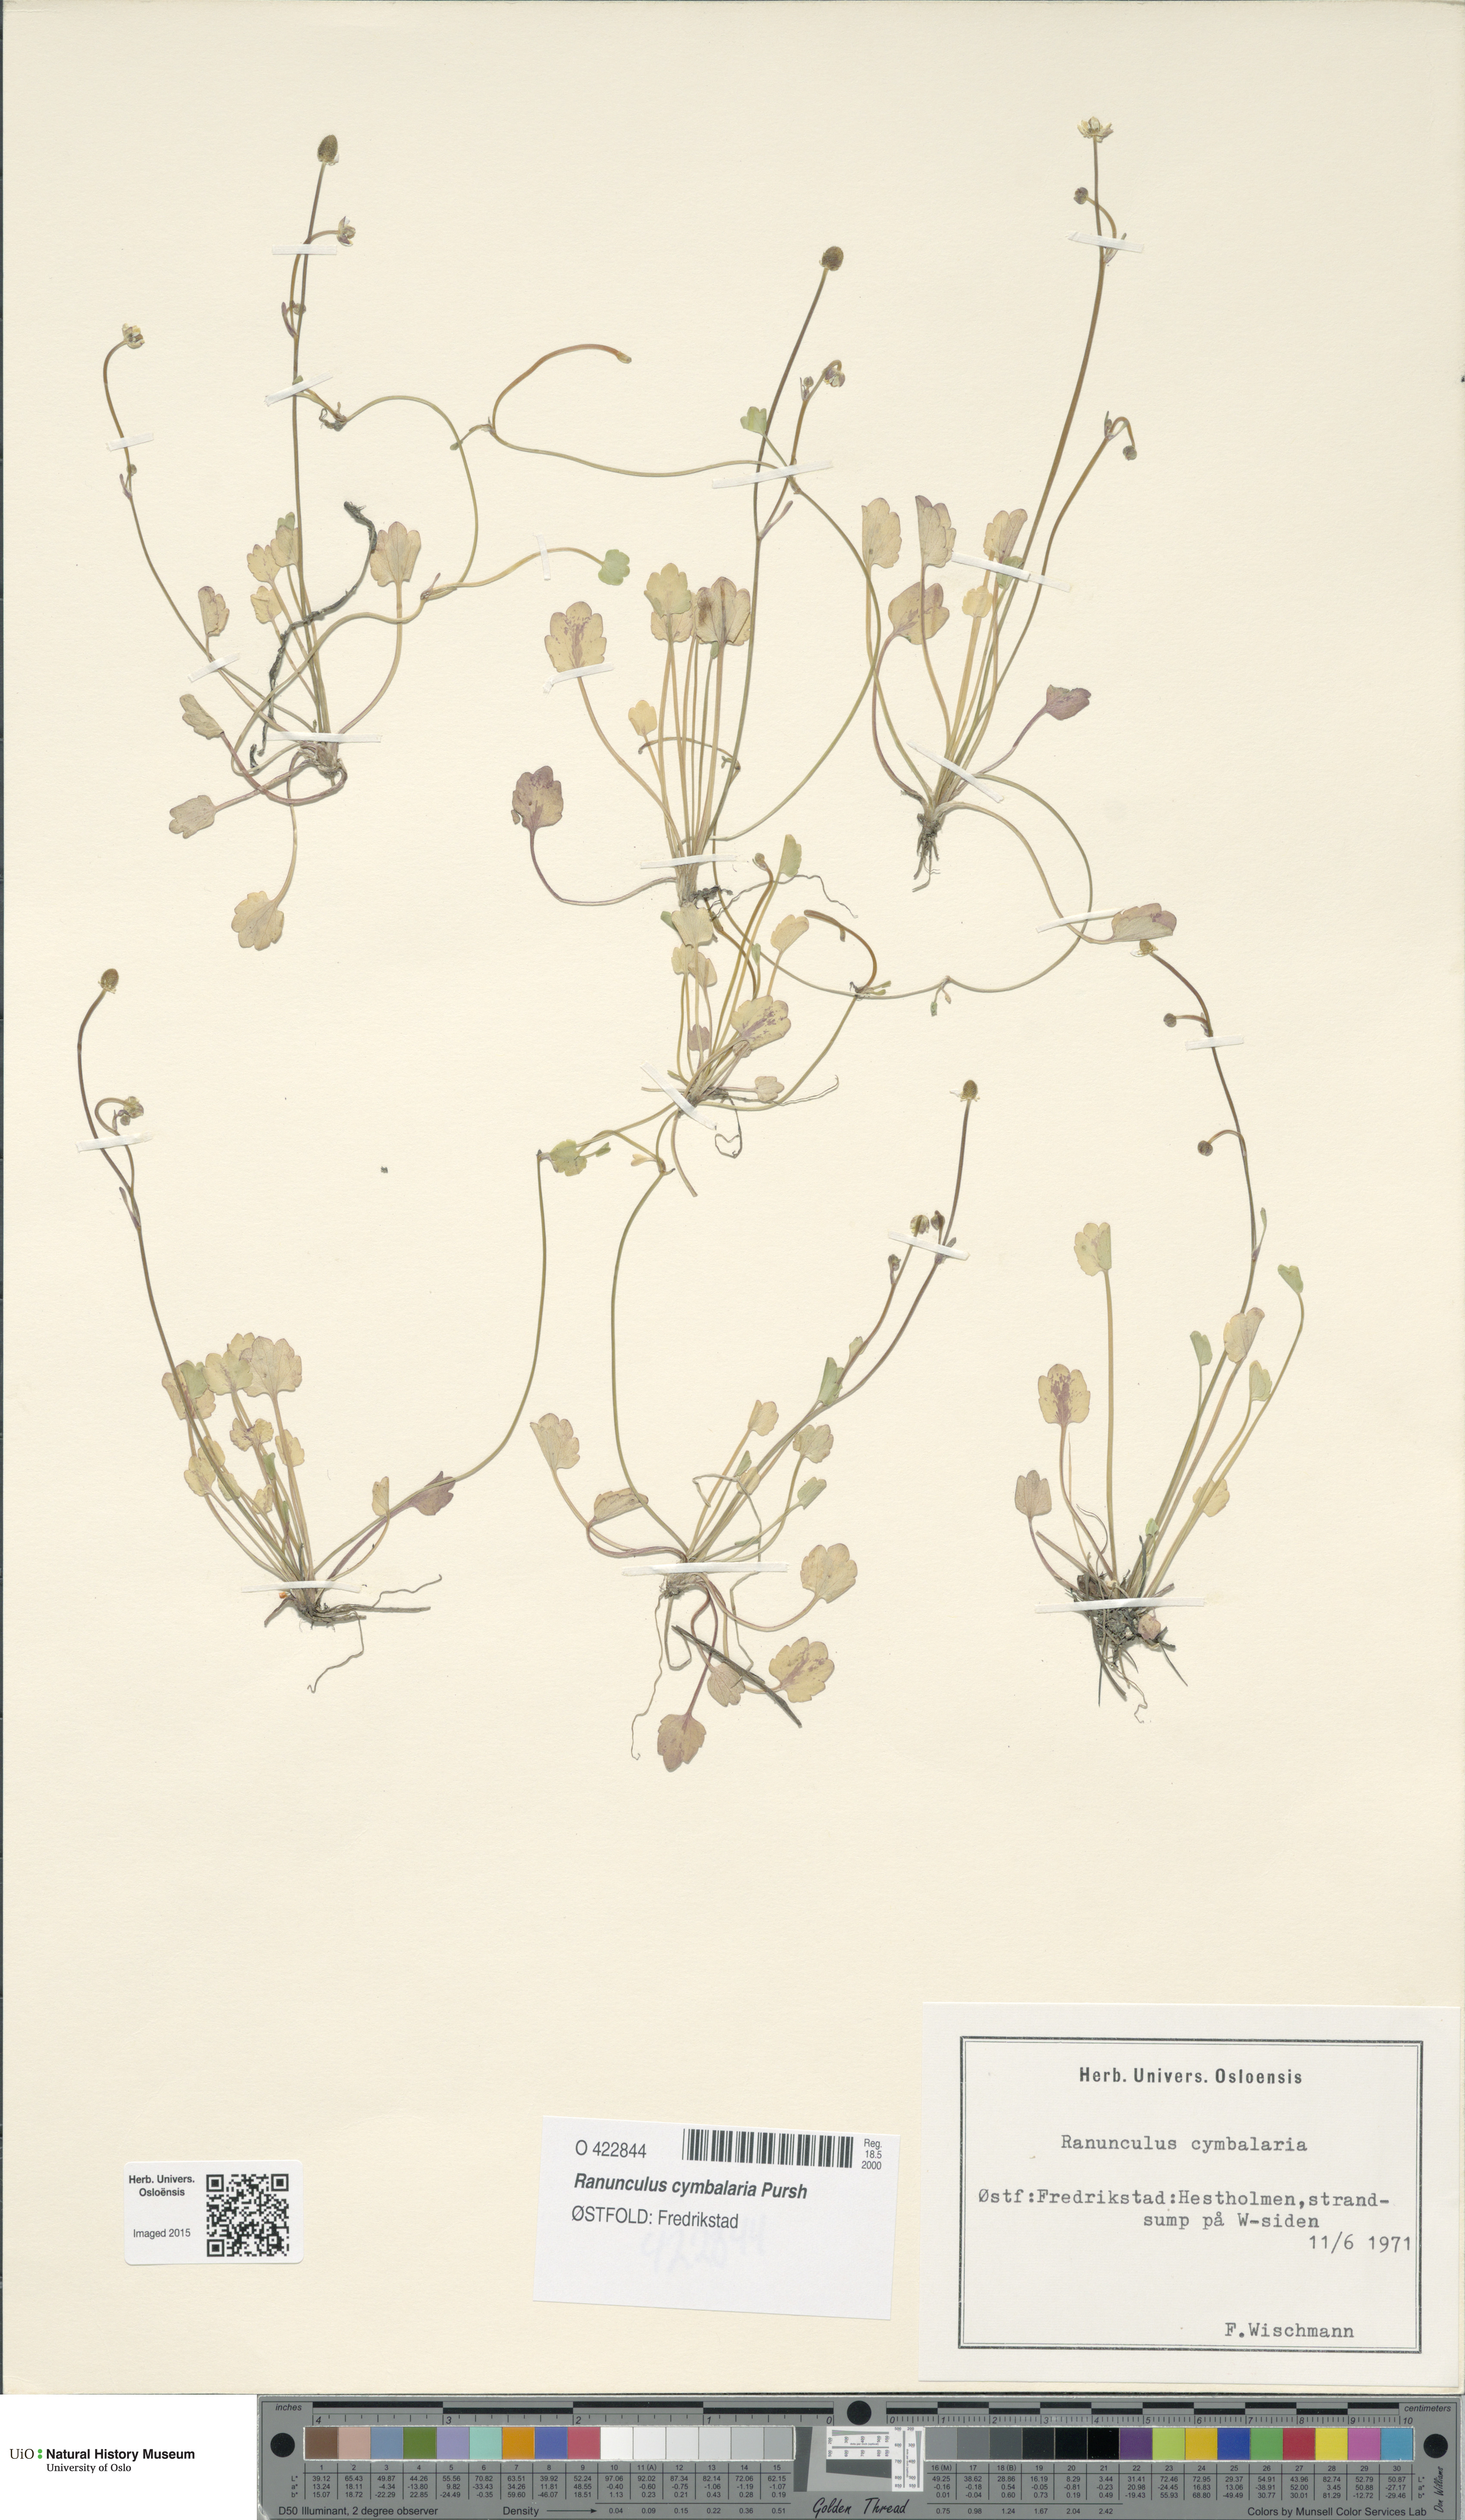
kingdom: Plantae
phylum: Tracheophyta
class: Magnoliopsida
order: Ranunculales
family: Ranunculaceae
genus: Halerpestes
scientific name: Halerpestes cymbalaria
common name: Seaside crowfoot
